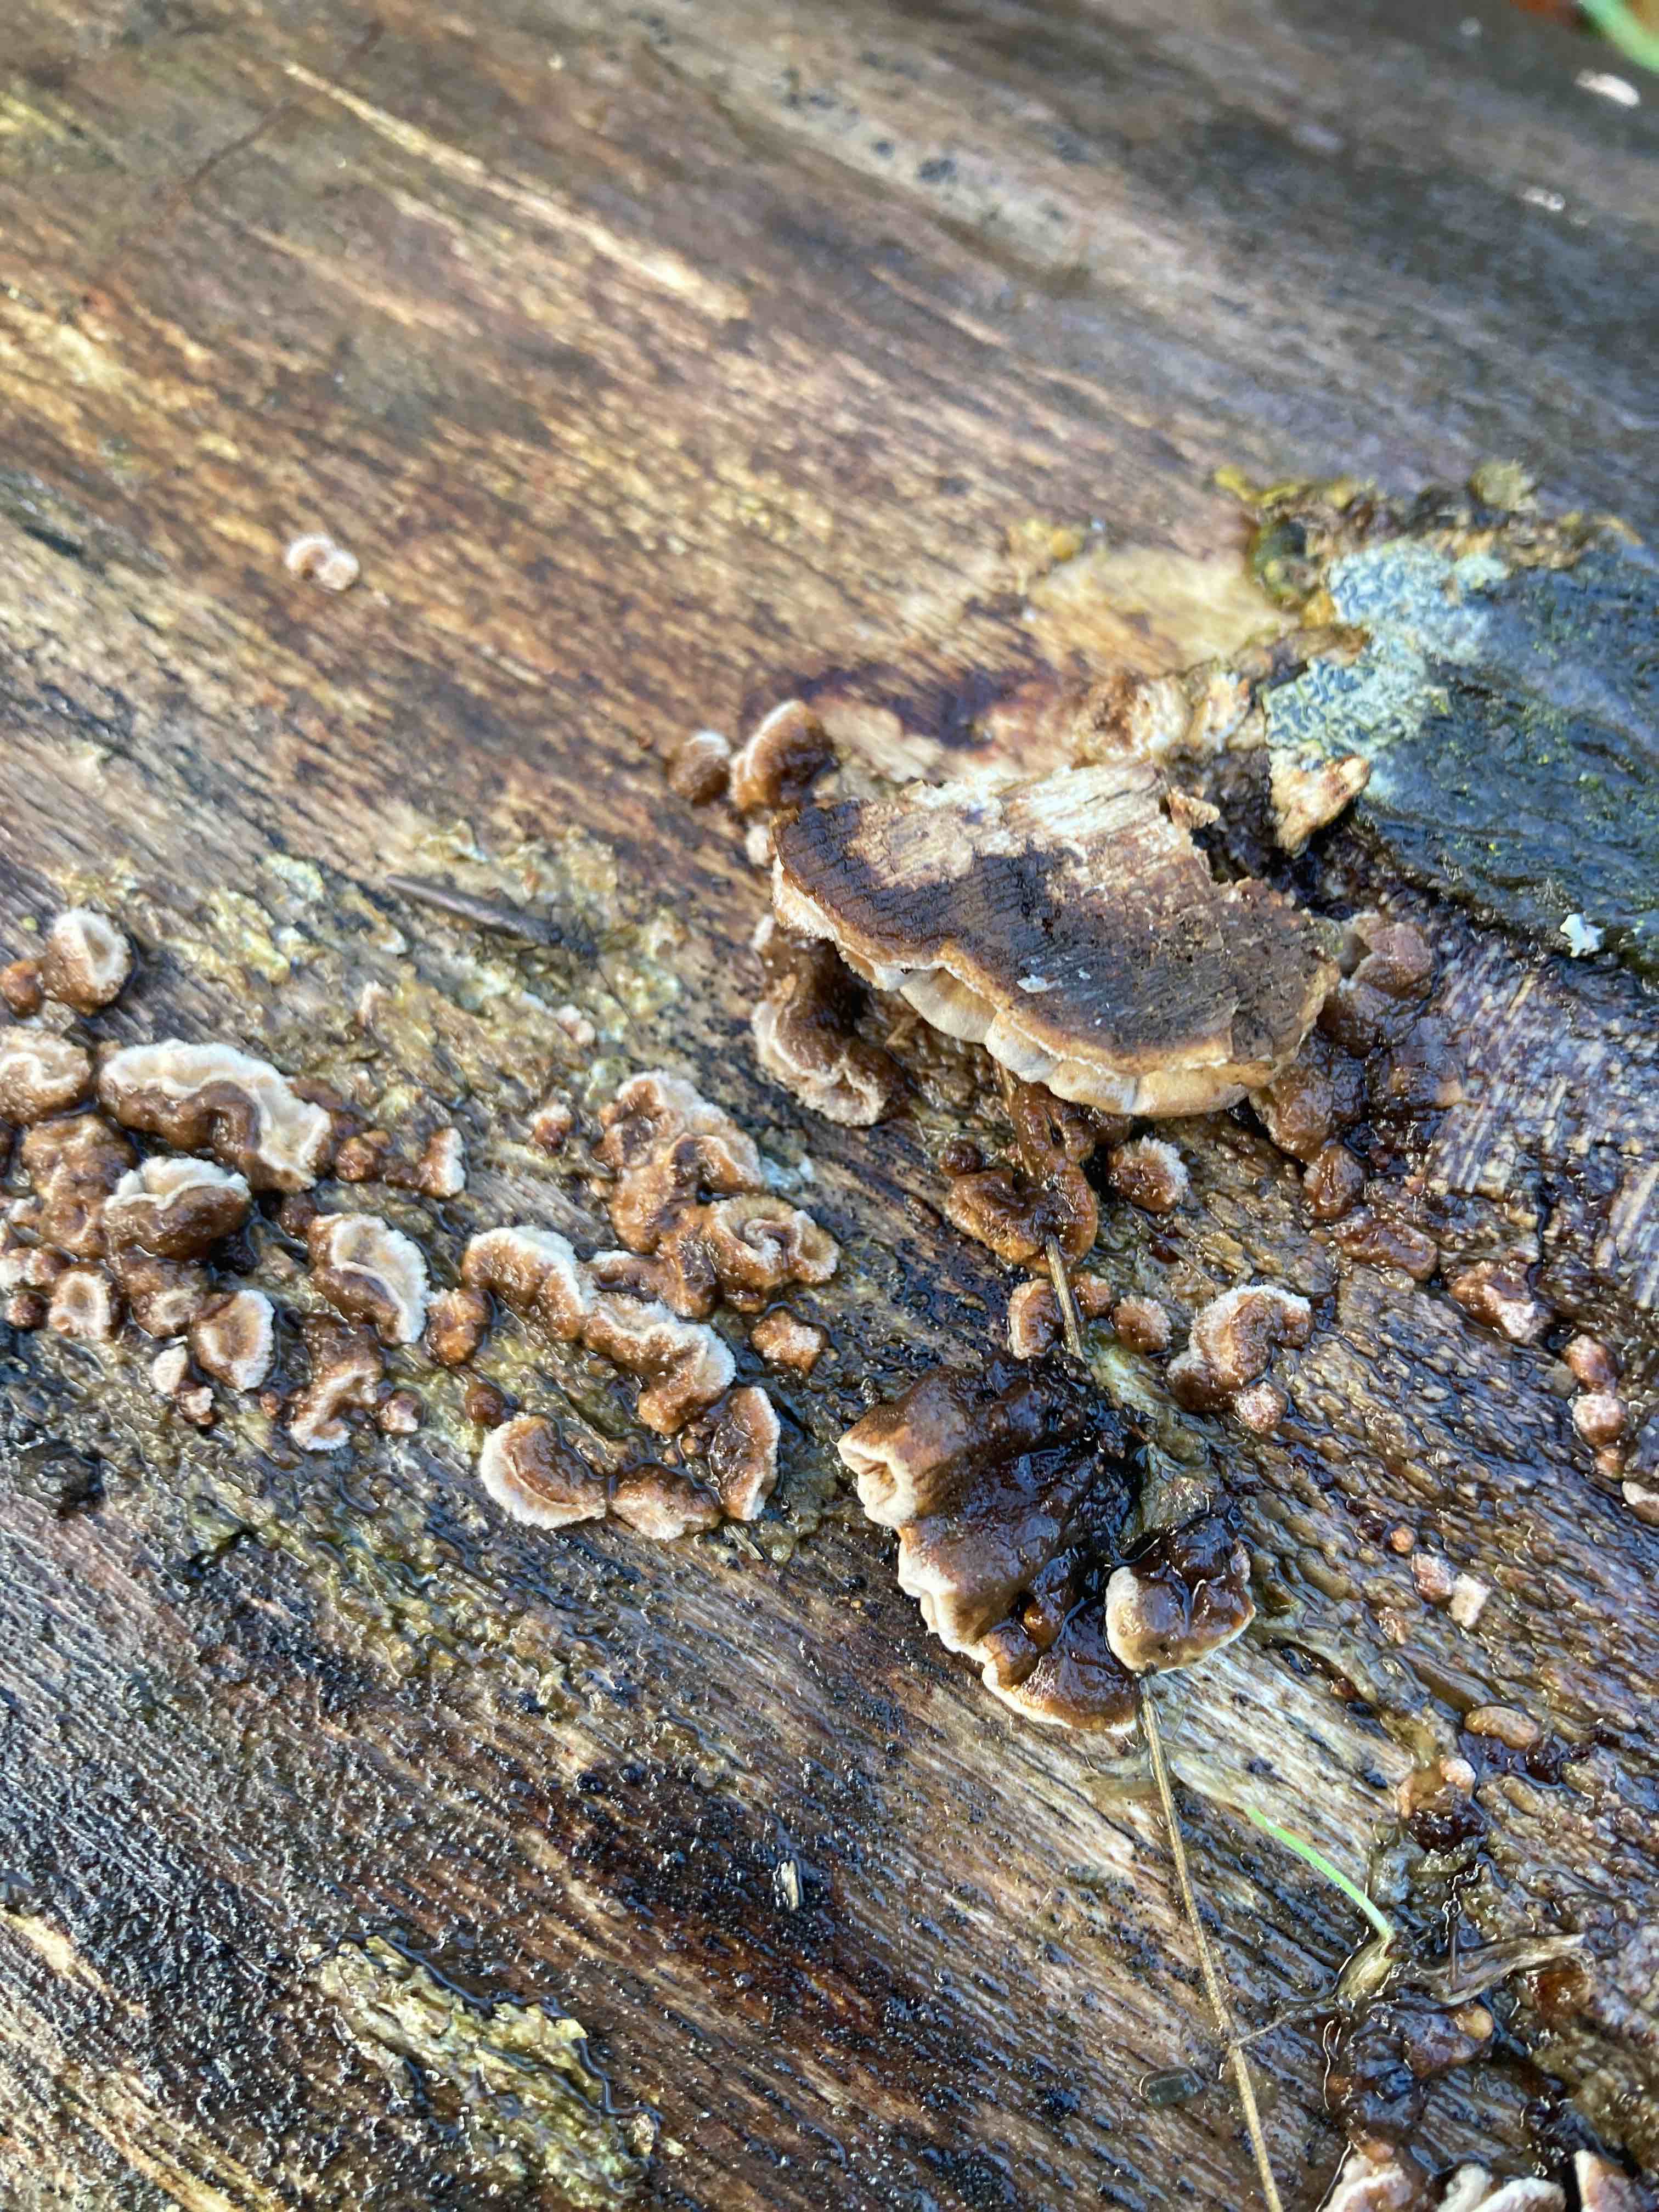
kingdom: Fungi
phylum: Basidiomycota
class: Agaricomycetes
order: Russulales
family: Hericiaceae
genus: Laxitextum
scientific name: Laxitextum bicolor
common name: tvefarvet filtskind
